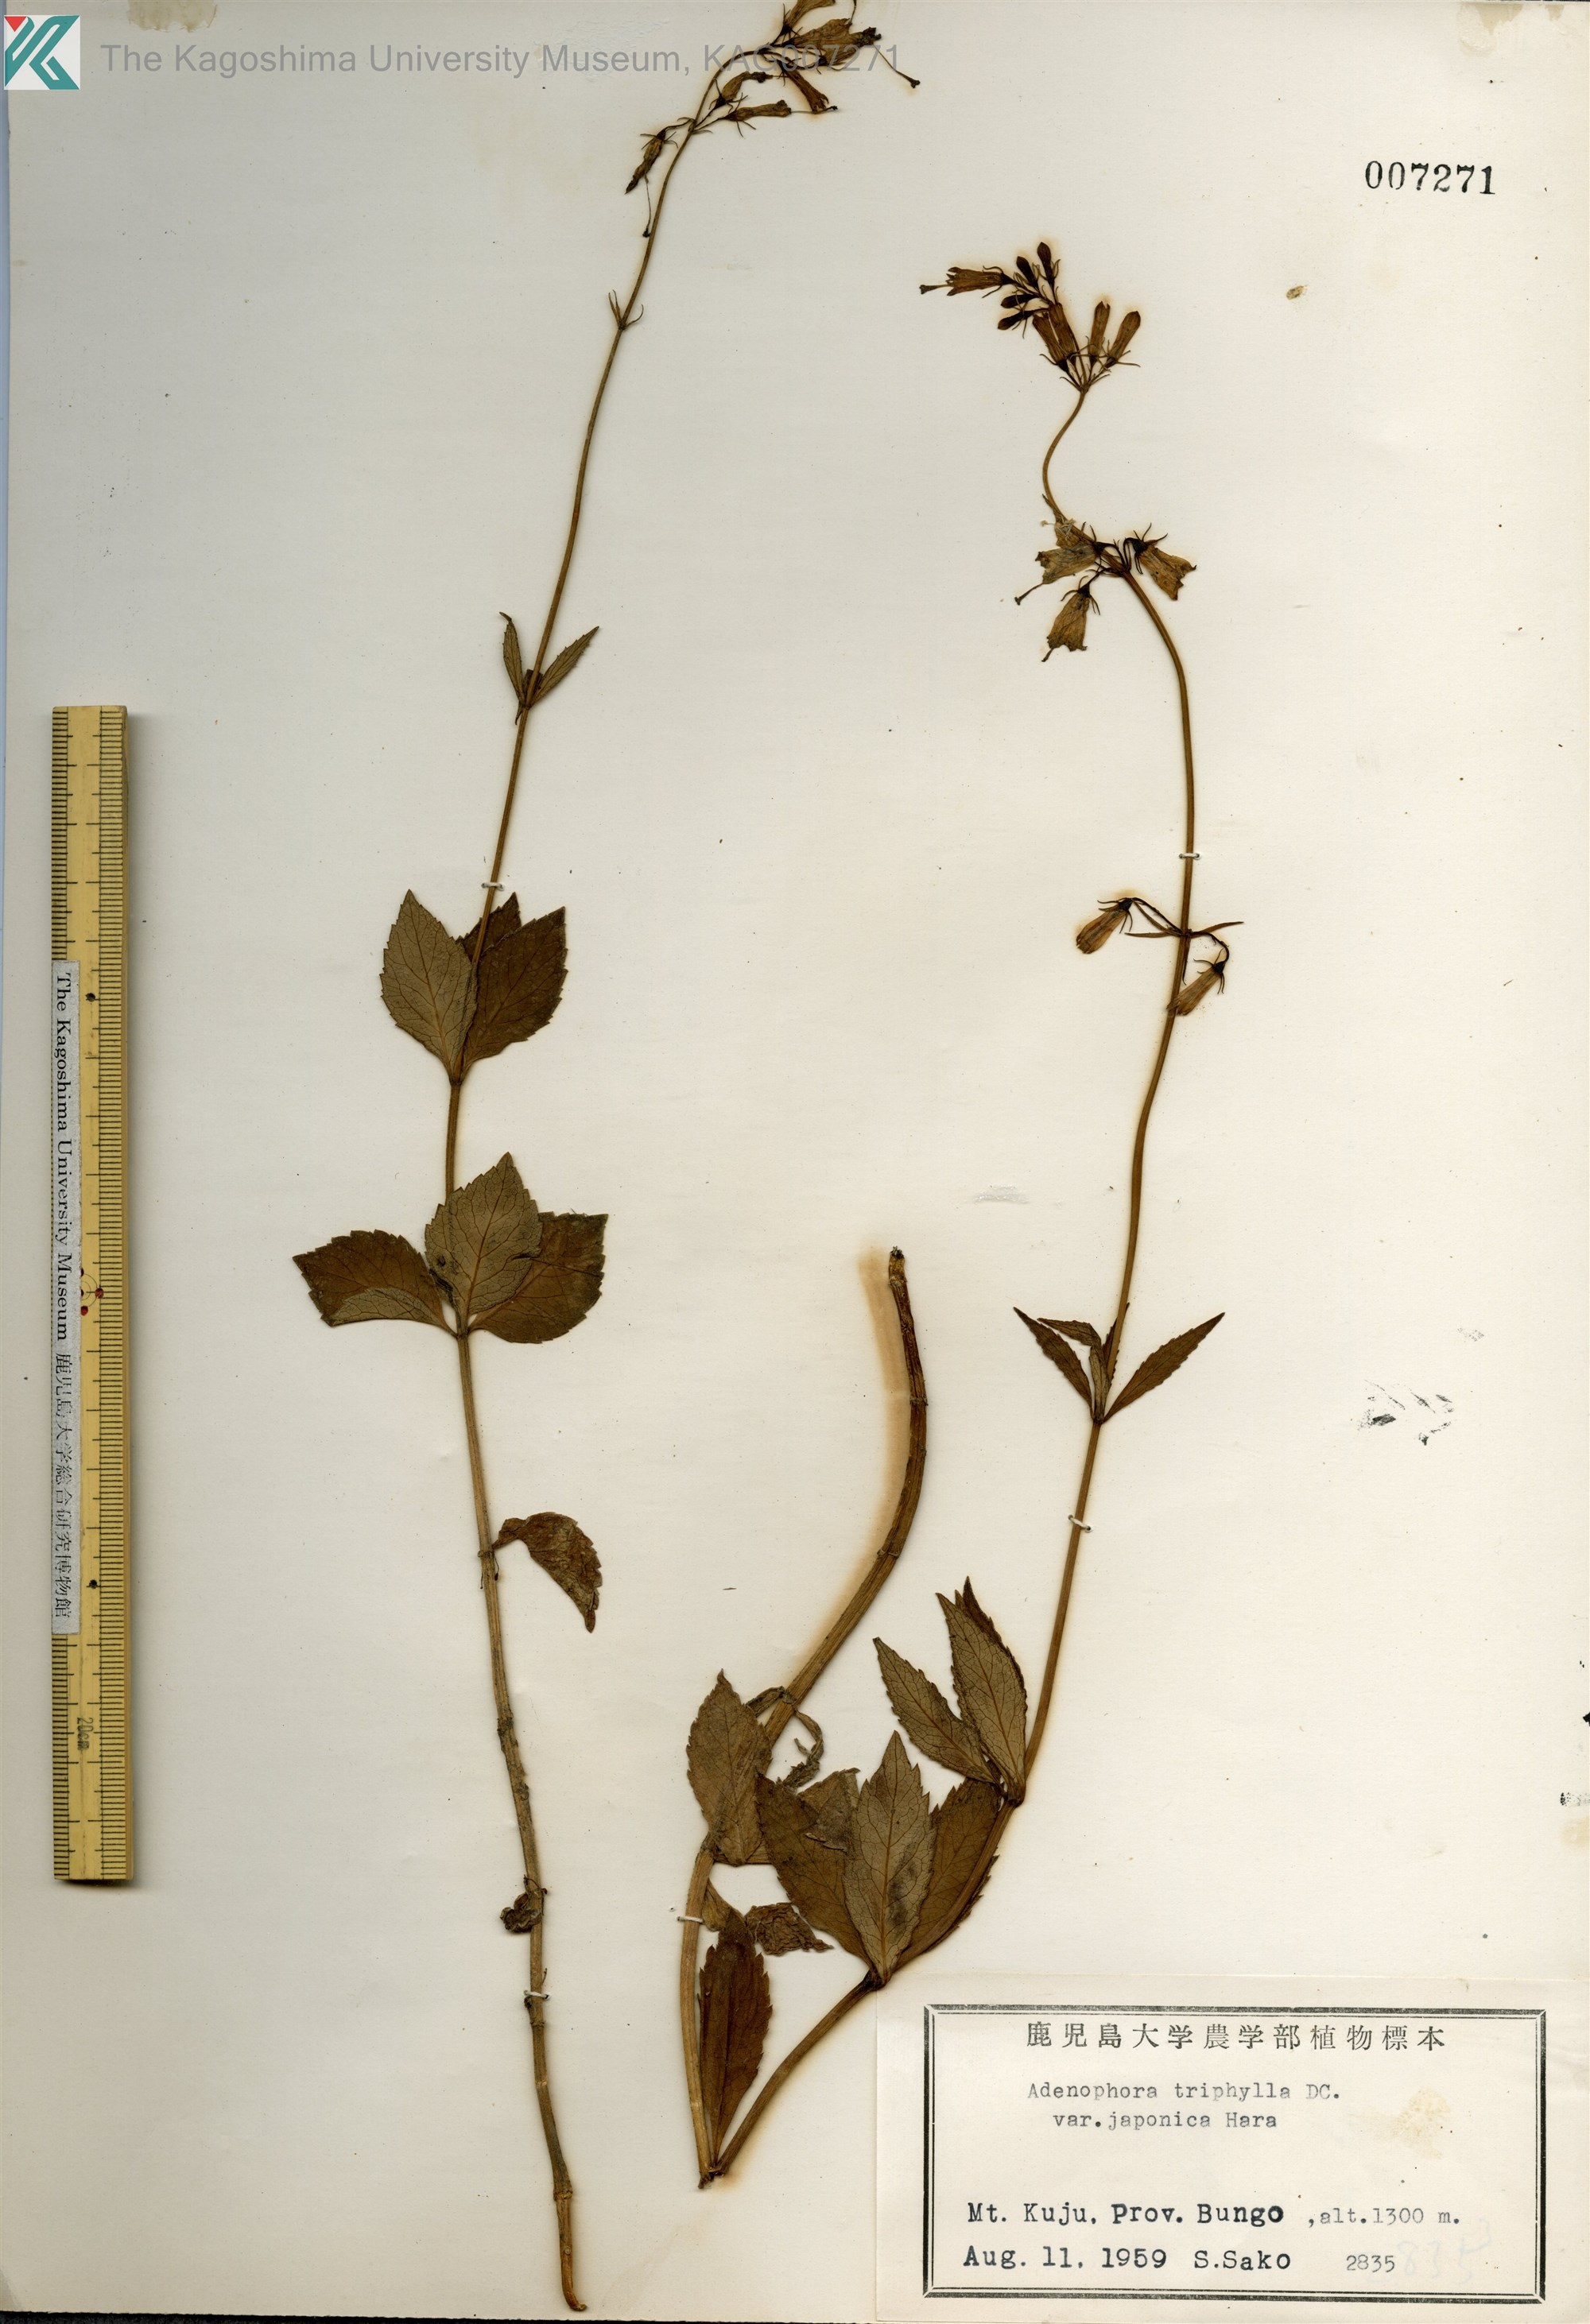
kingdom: Plantae
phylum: Tracheophyta
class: Magnoliopsida
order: Asterales
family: Campanulaceae
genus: Adenophora
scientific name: Adenophora triphylla
